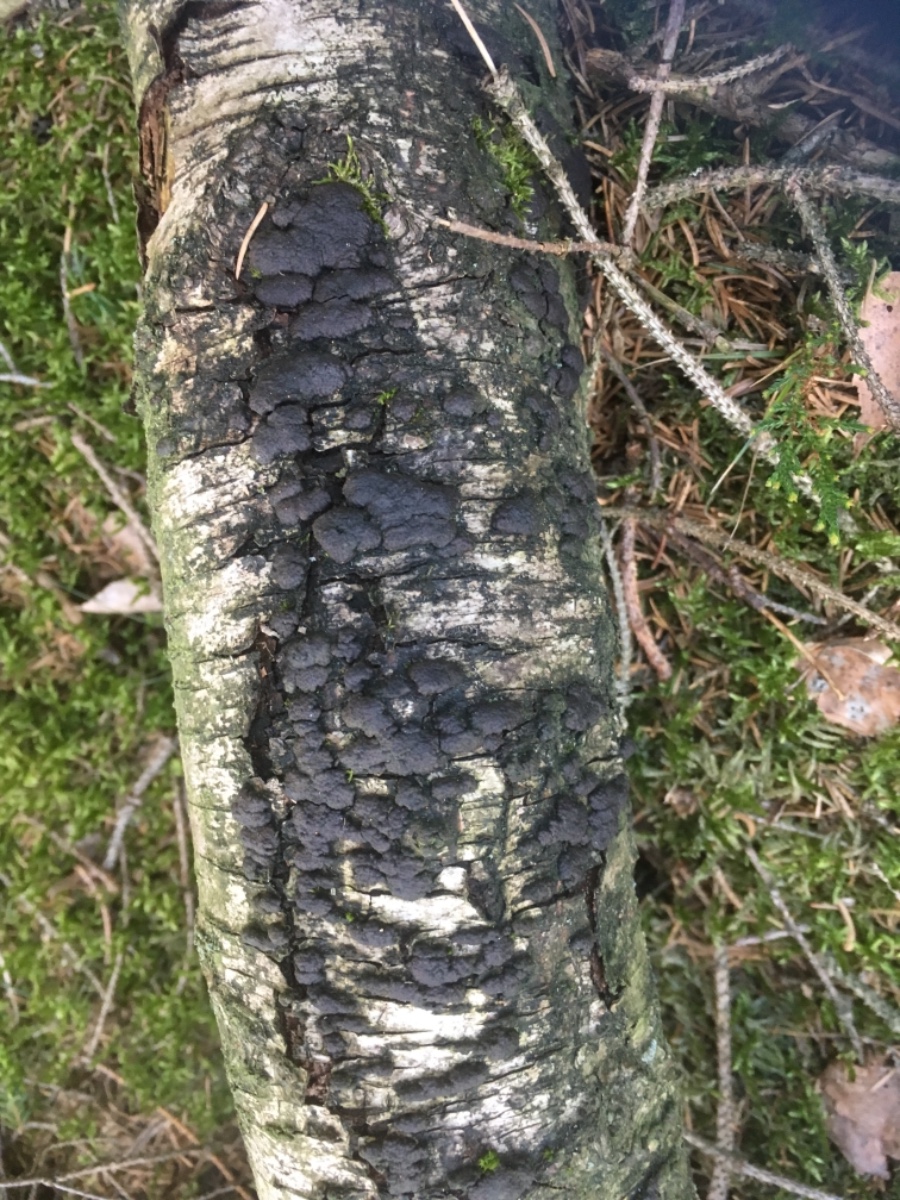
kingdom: Fungi
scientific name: Fungi
